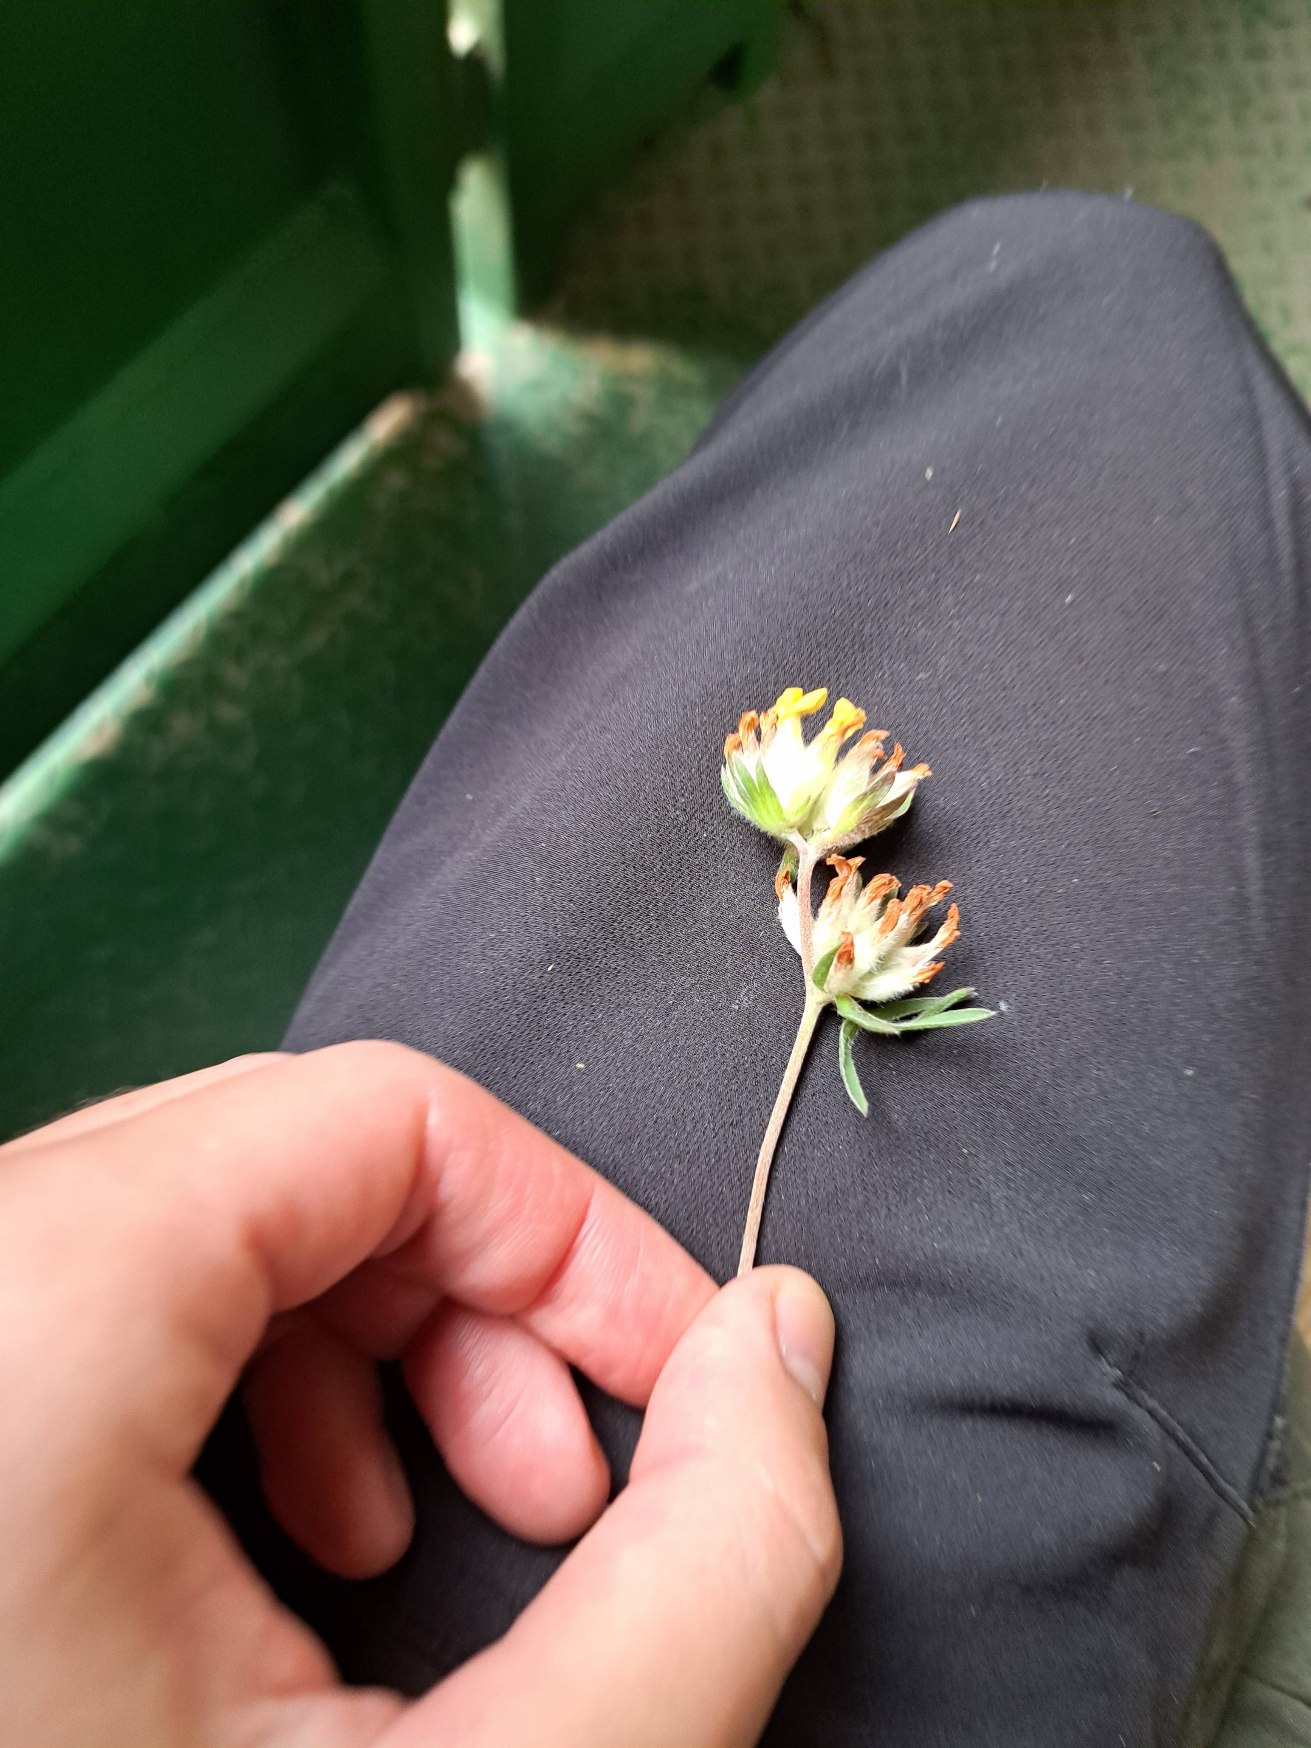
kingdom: Plantae
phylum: Tracheophyta
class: Magnoliopsida
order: Fabales
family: Fabaceae
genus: Anthyllis
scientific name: Anthyllis vulneraria
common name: Rundbælg
